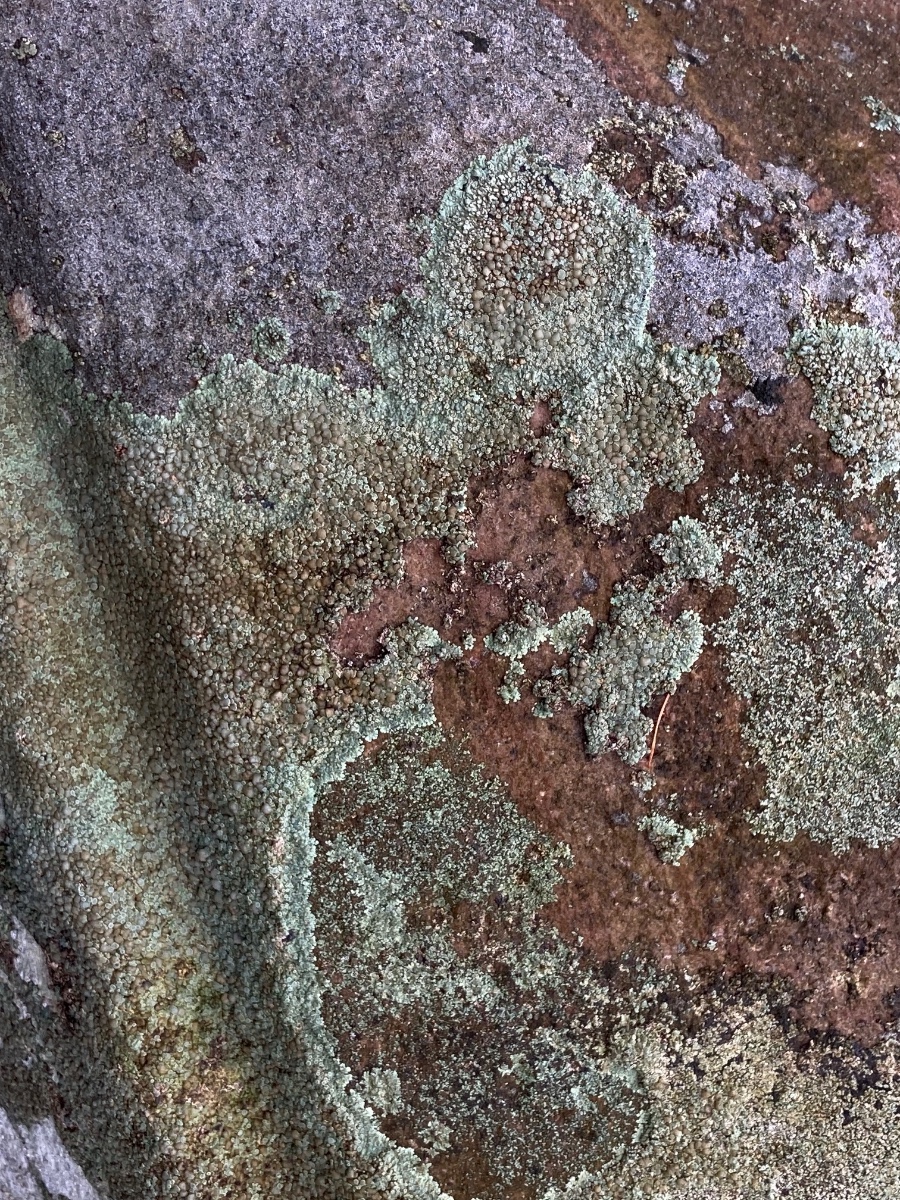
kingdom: Fungi
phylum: Ascomycota
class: Lecanoromycetes
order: Lecanorales
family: Lecanoraceae
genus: Protoparmeliopsis
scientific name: Protoparmeliopsis muralis
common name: randfliget kantskivelav
